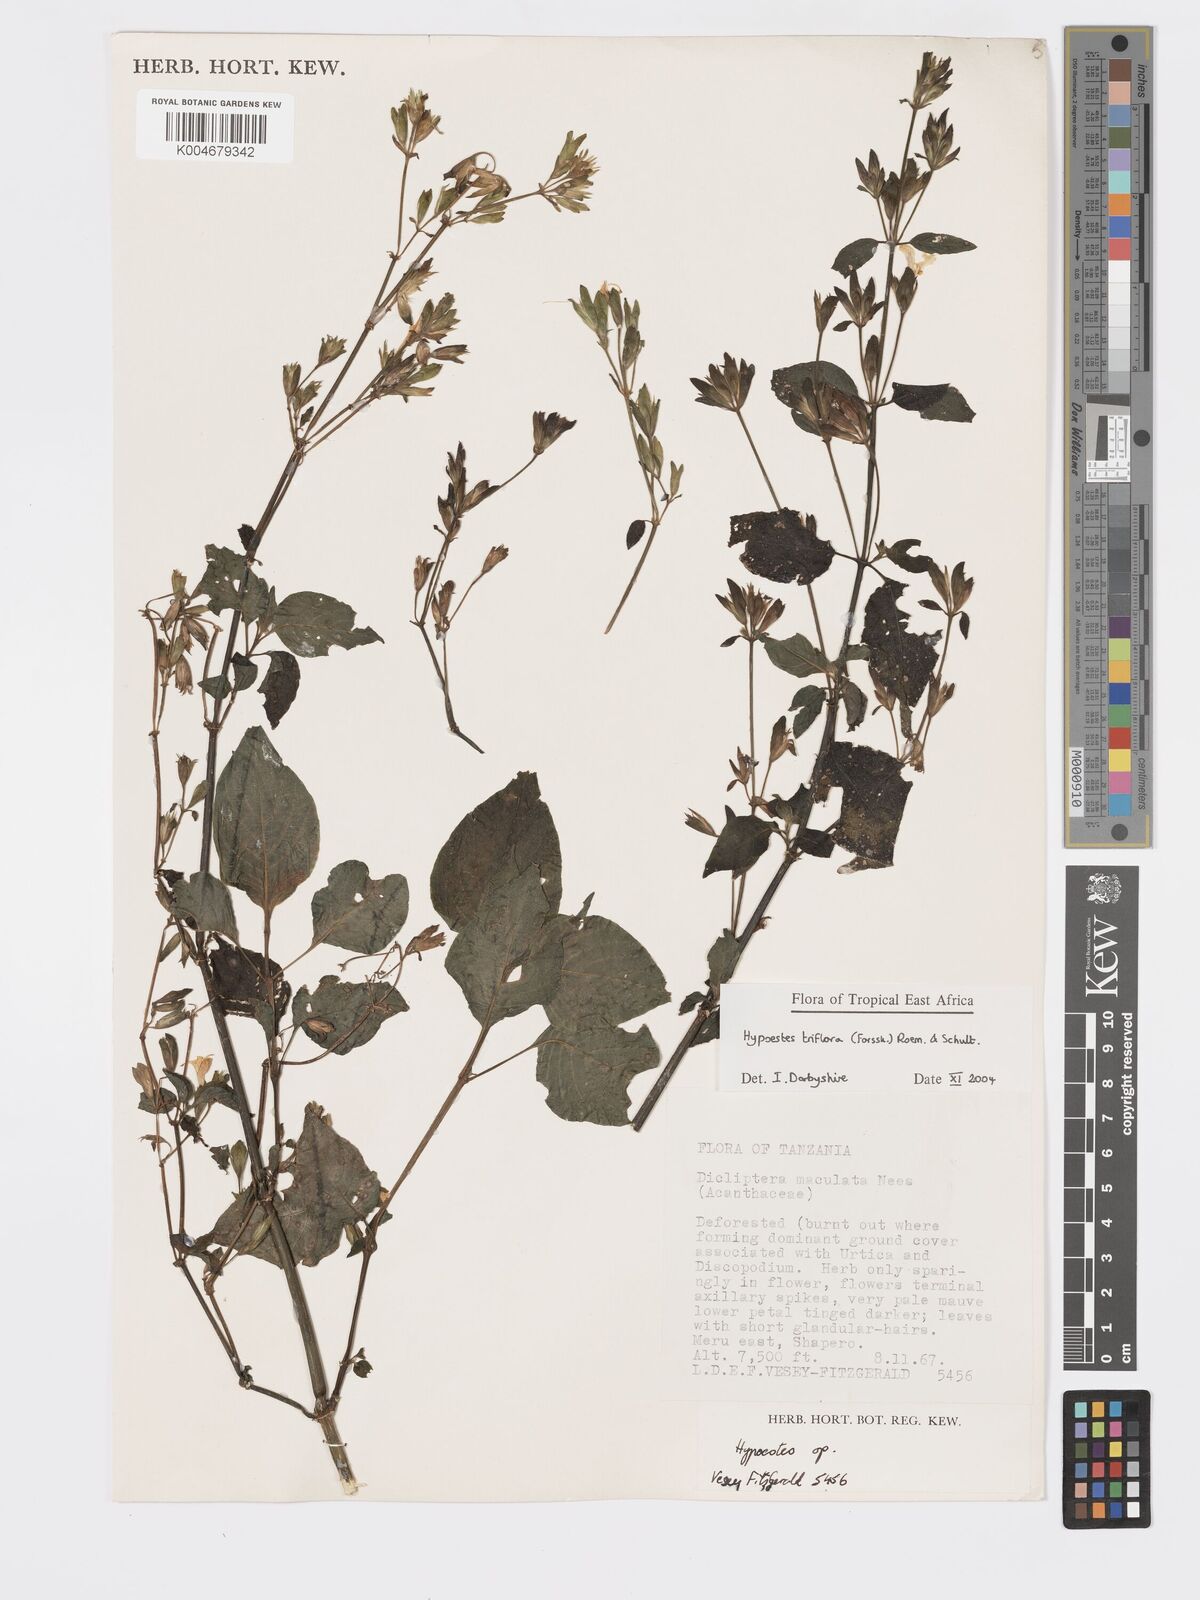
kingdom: Plantae
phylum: Tracheophyta
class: Magnoliopsida
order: Lamiales
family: Acanthaceae
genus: Hypoestes
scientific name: Hypoestes triflora
